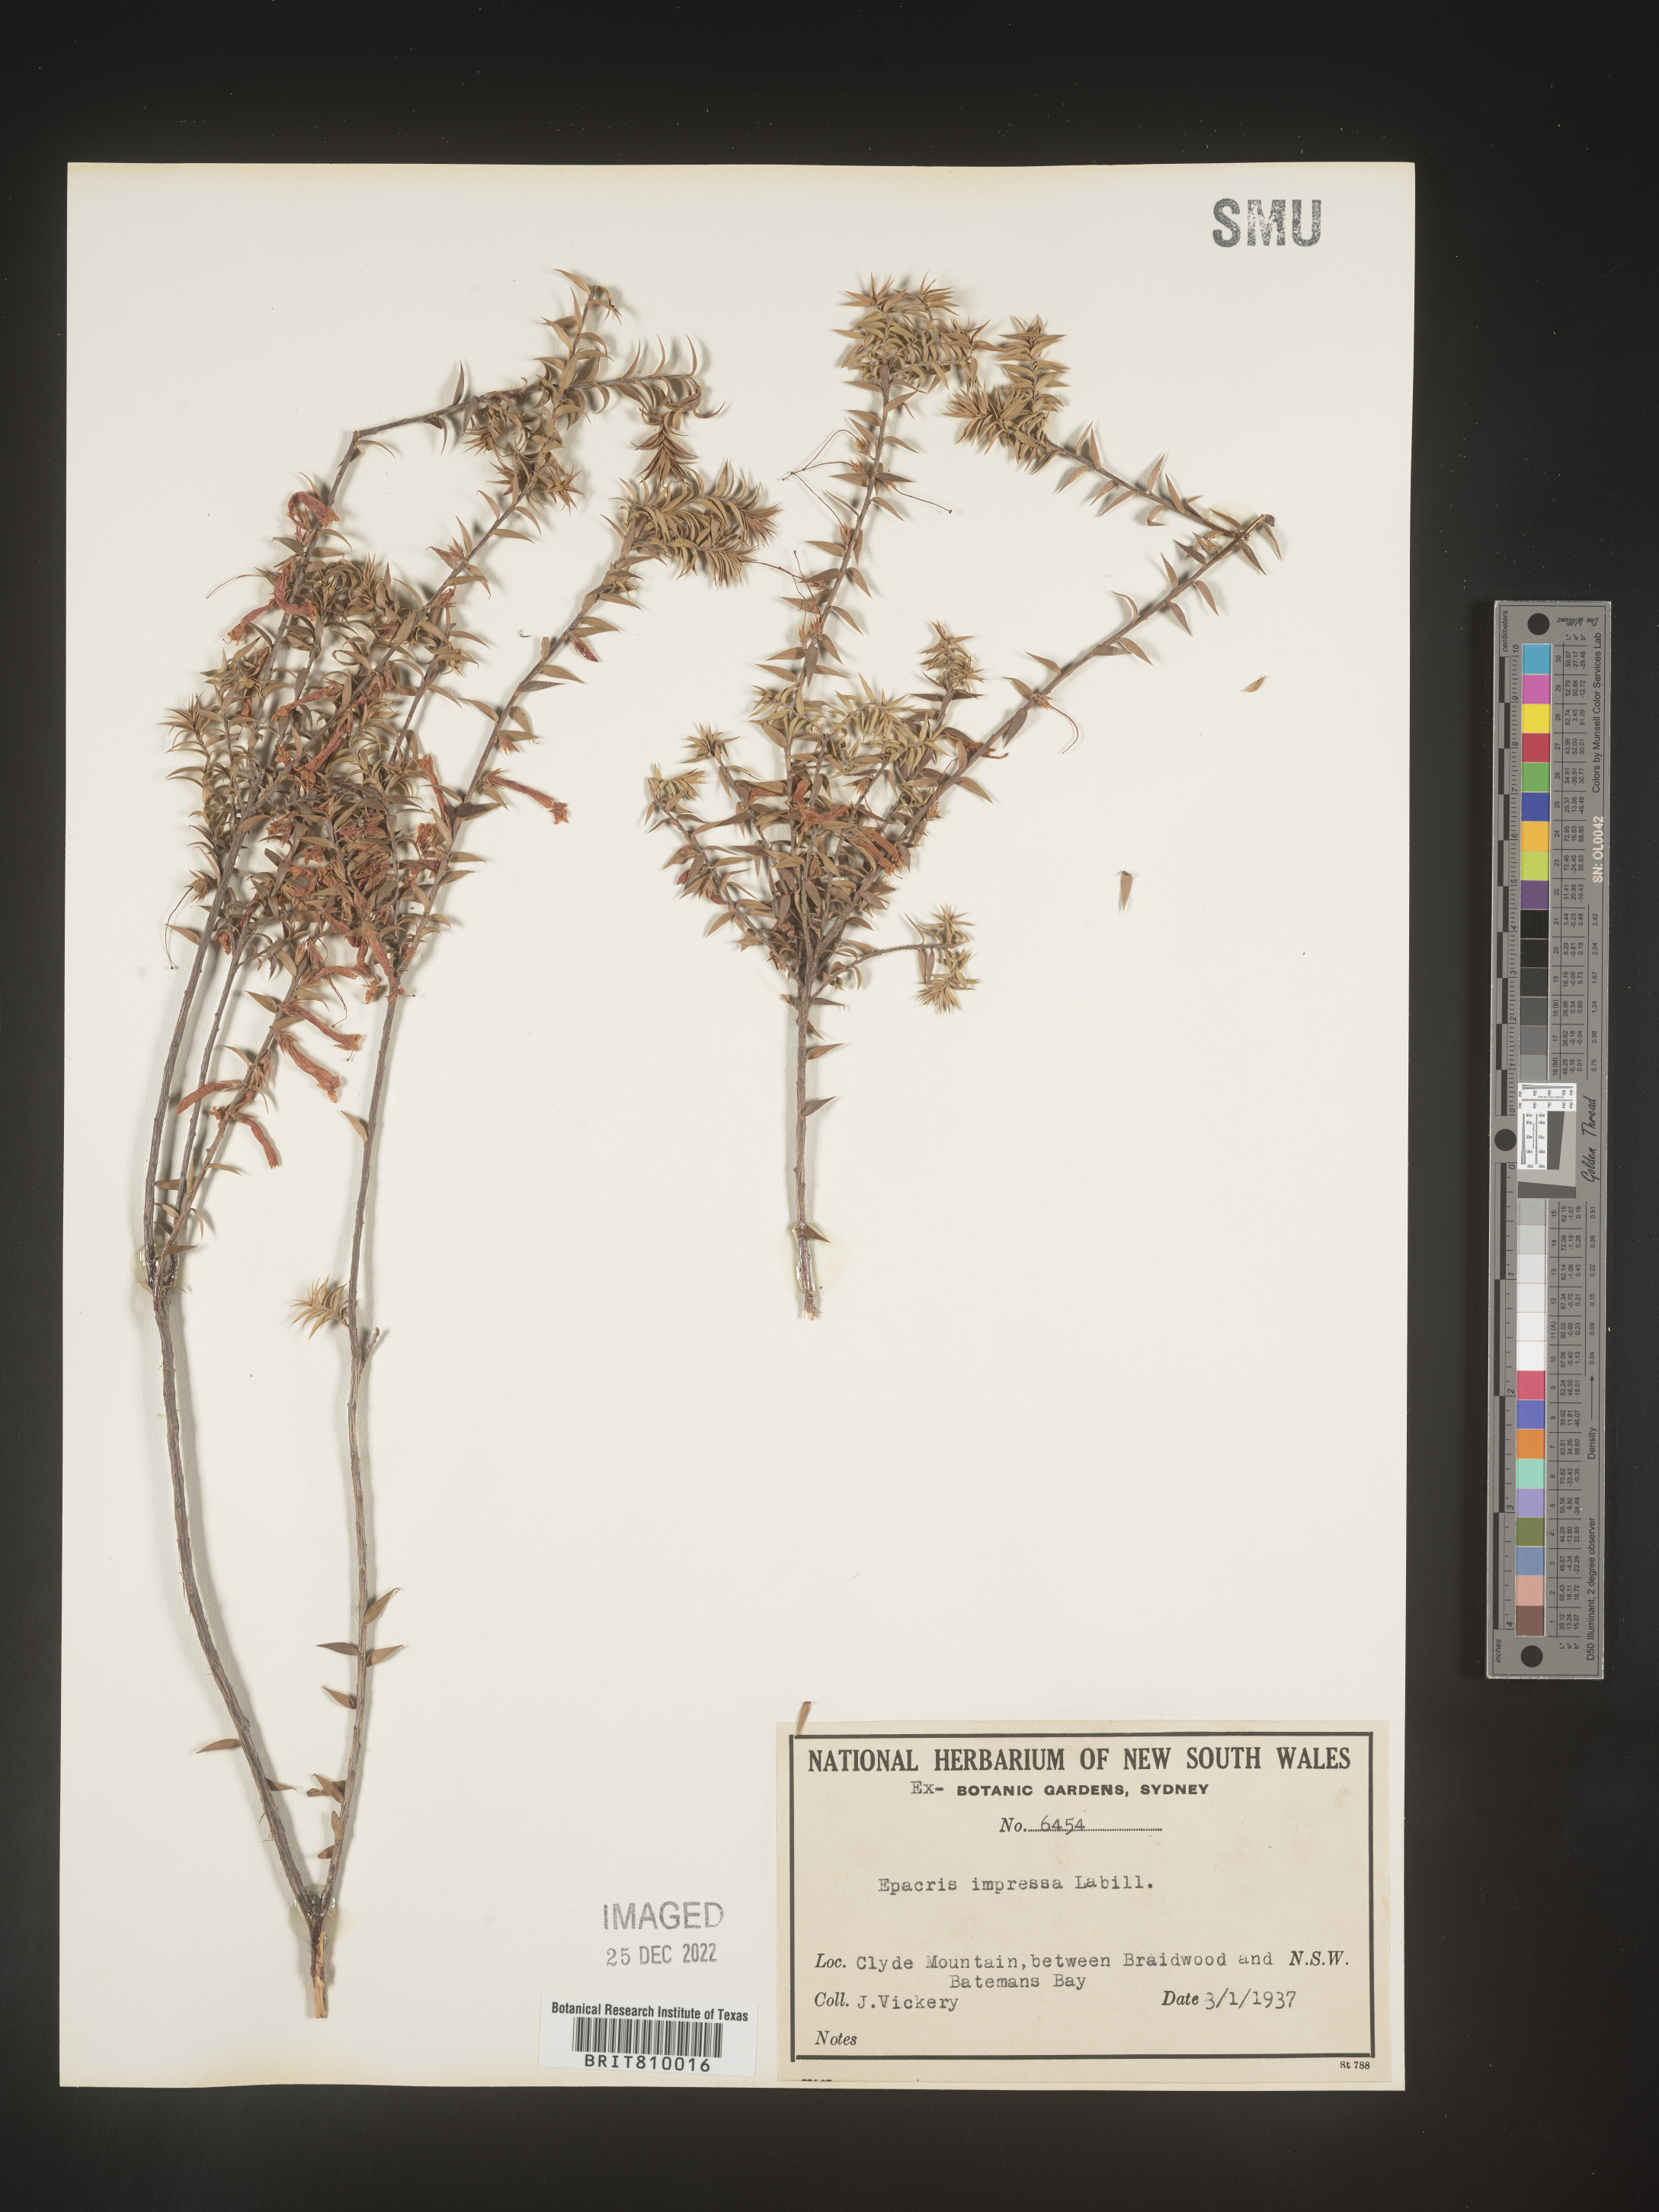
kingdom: Plantae
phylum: Tracheophyta
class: Magnoliopsida
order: Ericales
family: Ericaceae
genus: Epacris
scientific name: Epacris
